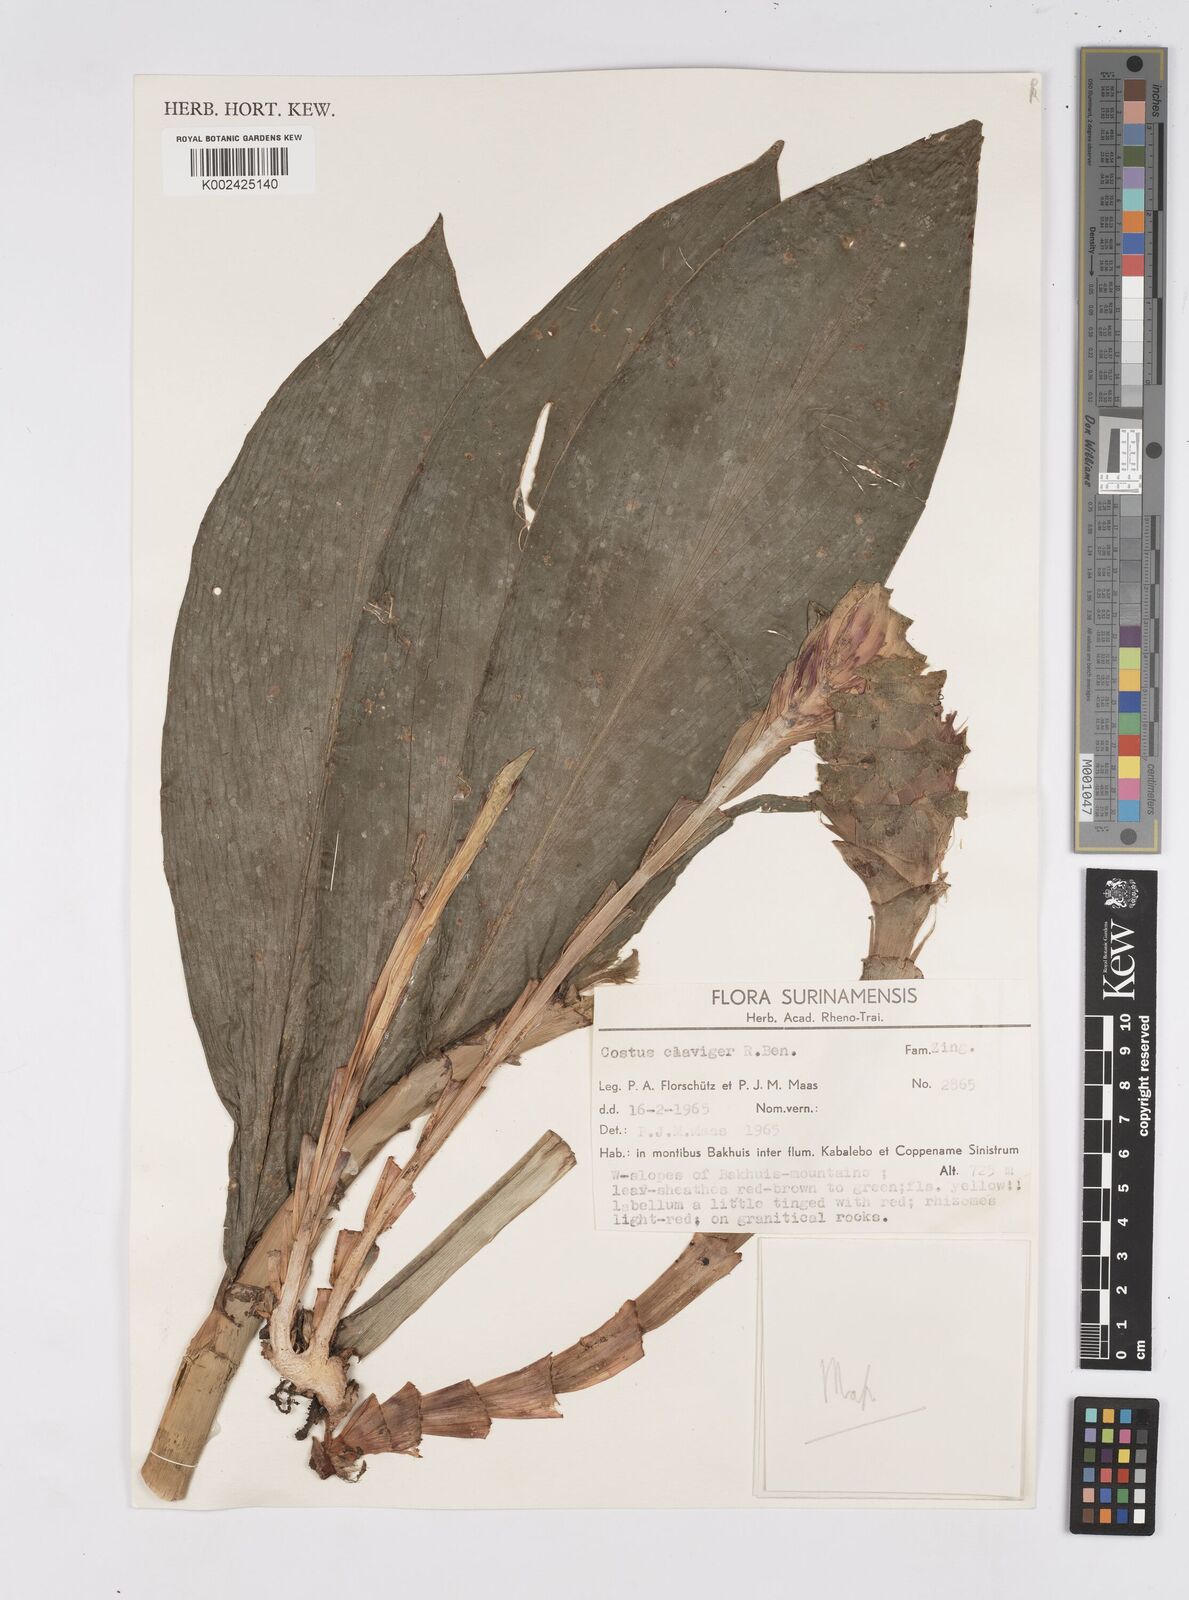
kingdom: Plantae
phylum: Tracheophyta
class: Liliopsida
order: Zingiberales
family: Costaceae
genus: Costus
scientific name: Costus claviger
